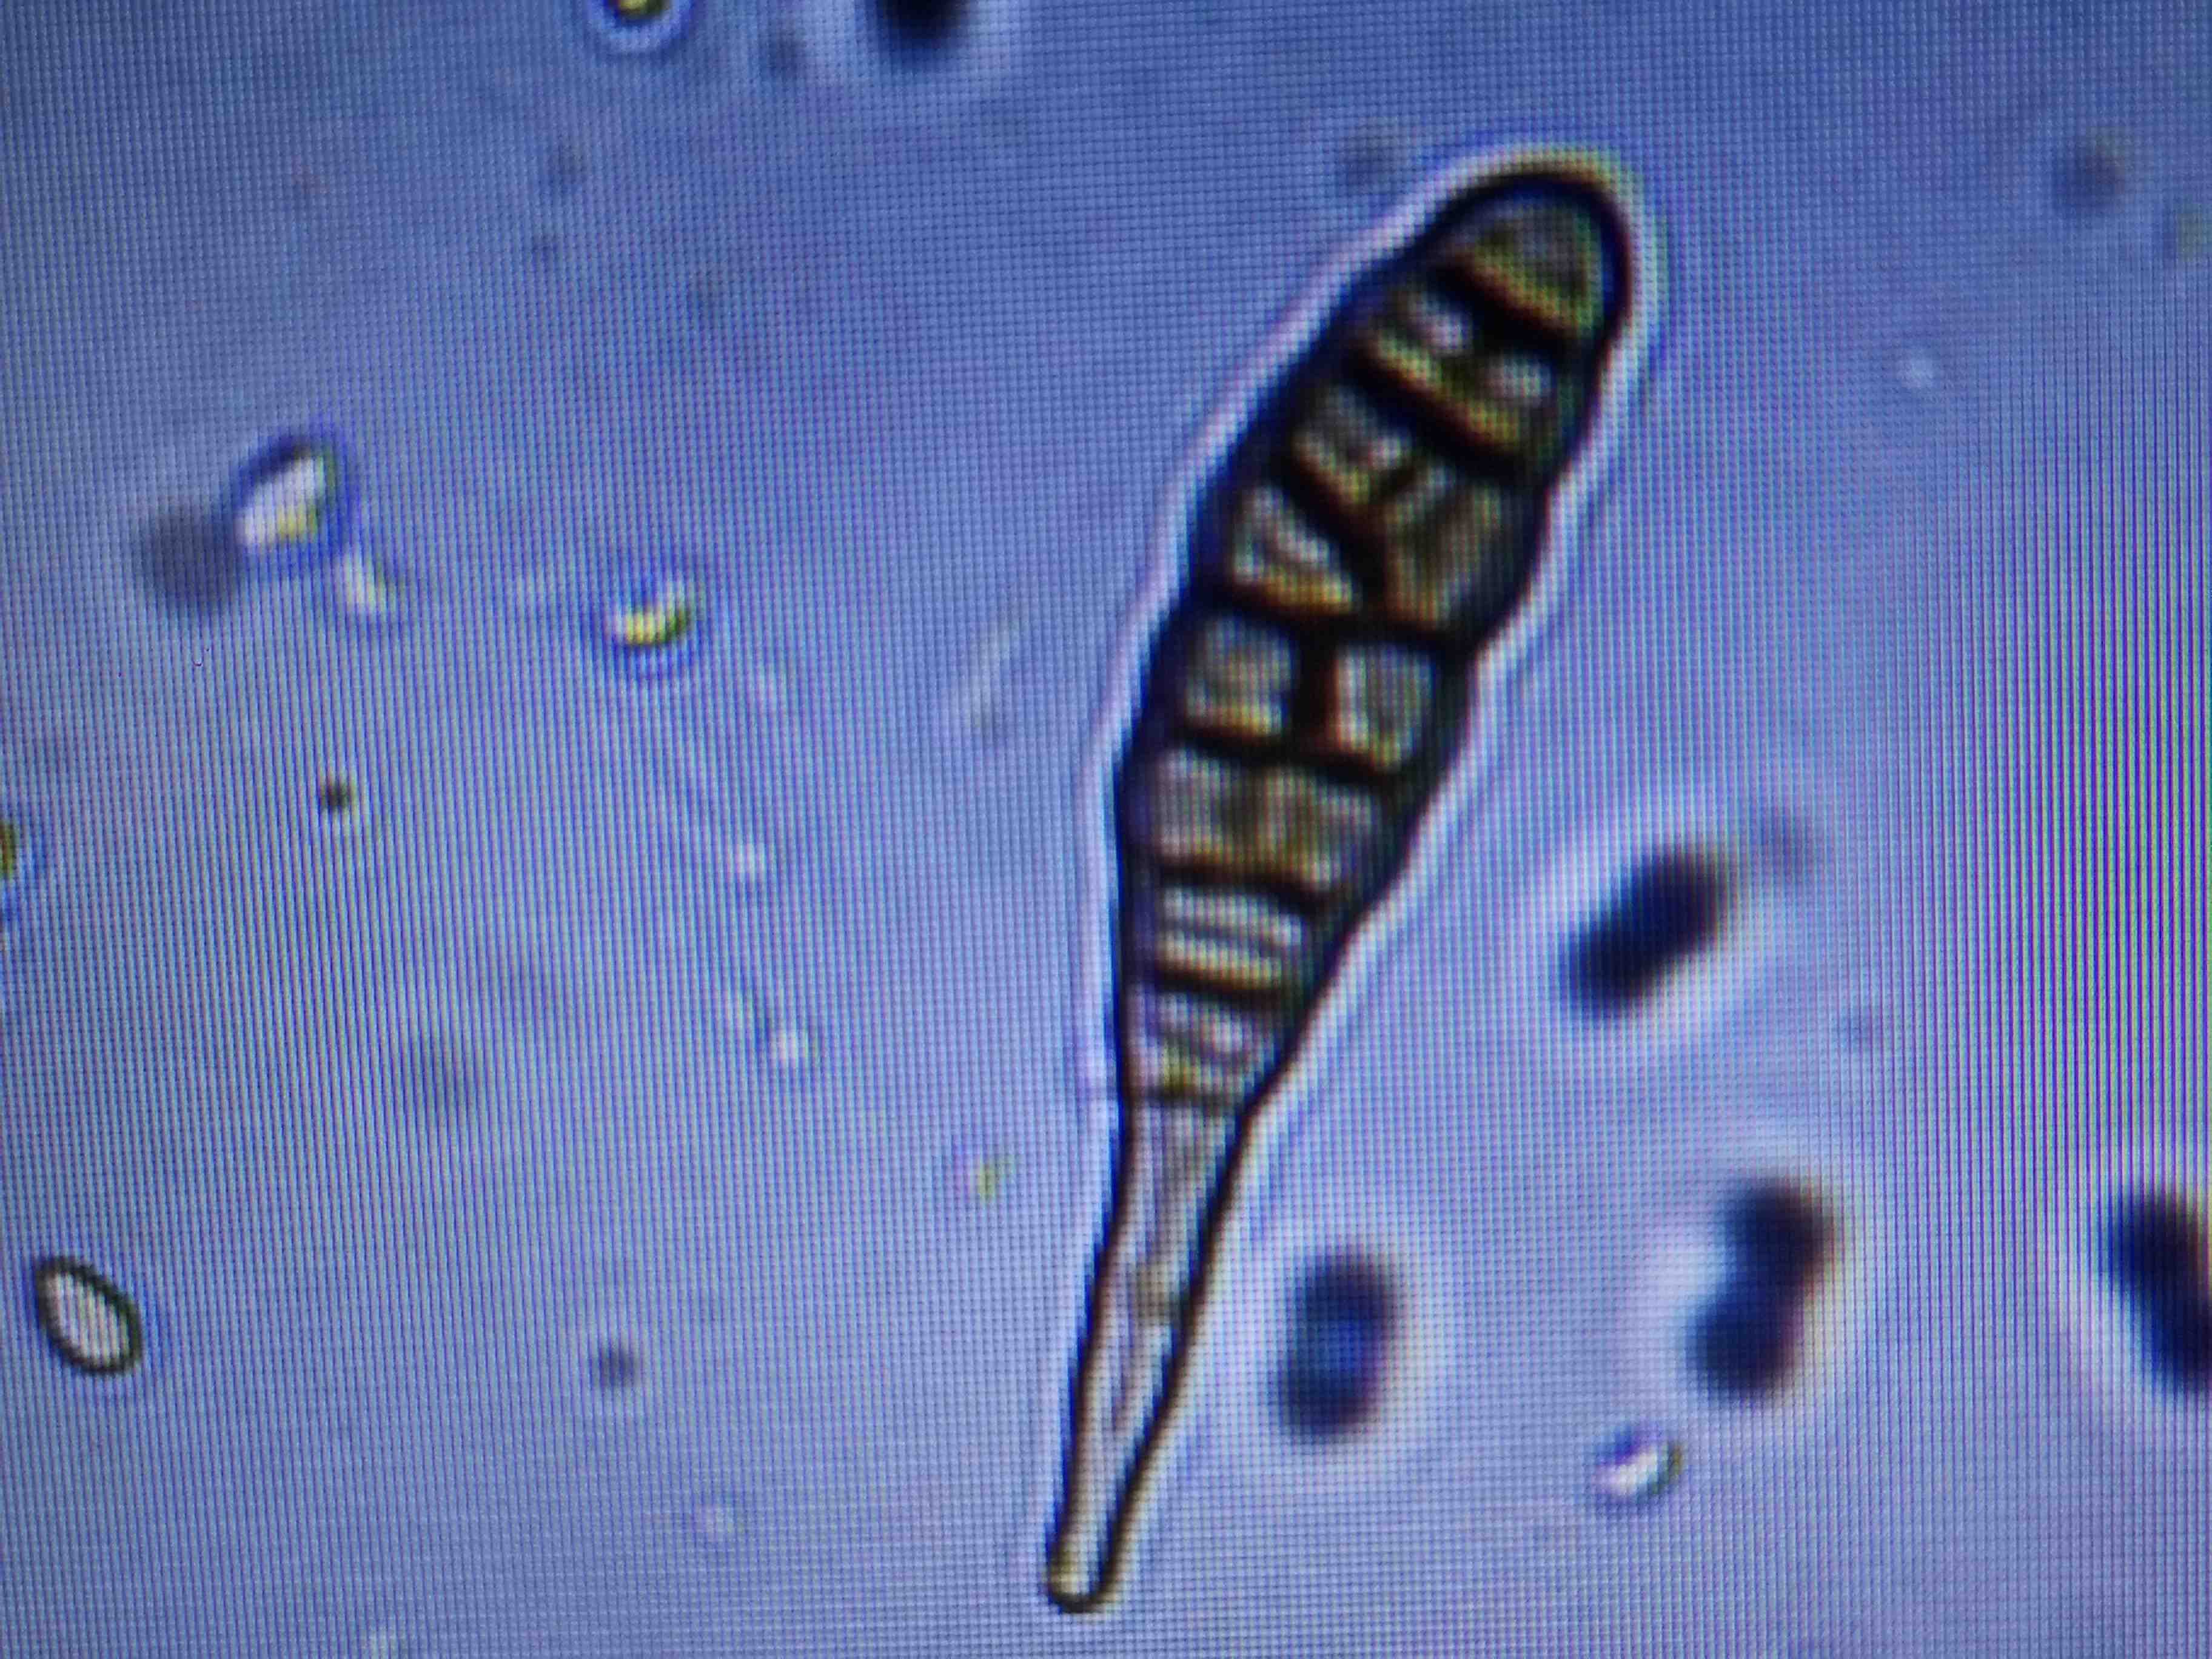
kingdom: Fungi
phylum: Ascomycota
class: Dothideomycetes
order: Pleosporales
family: Pleosporaceae
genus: Alternaria
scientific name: Alternaria
